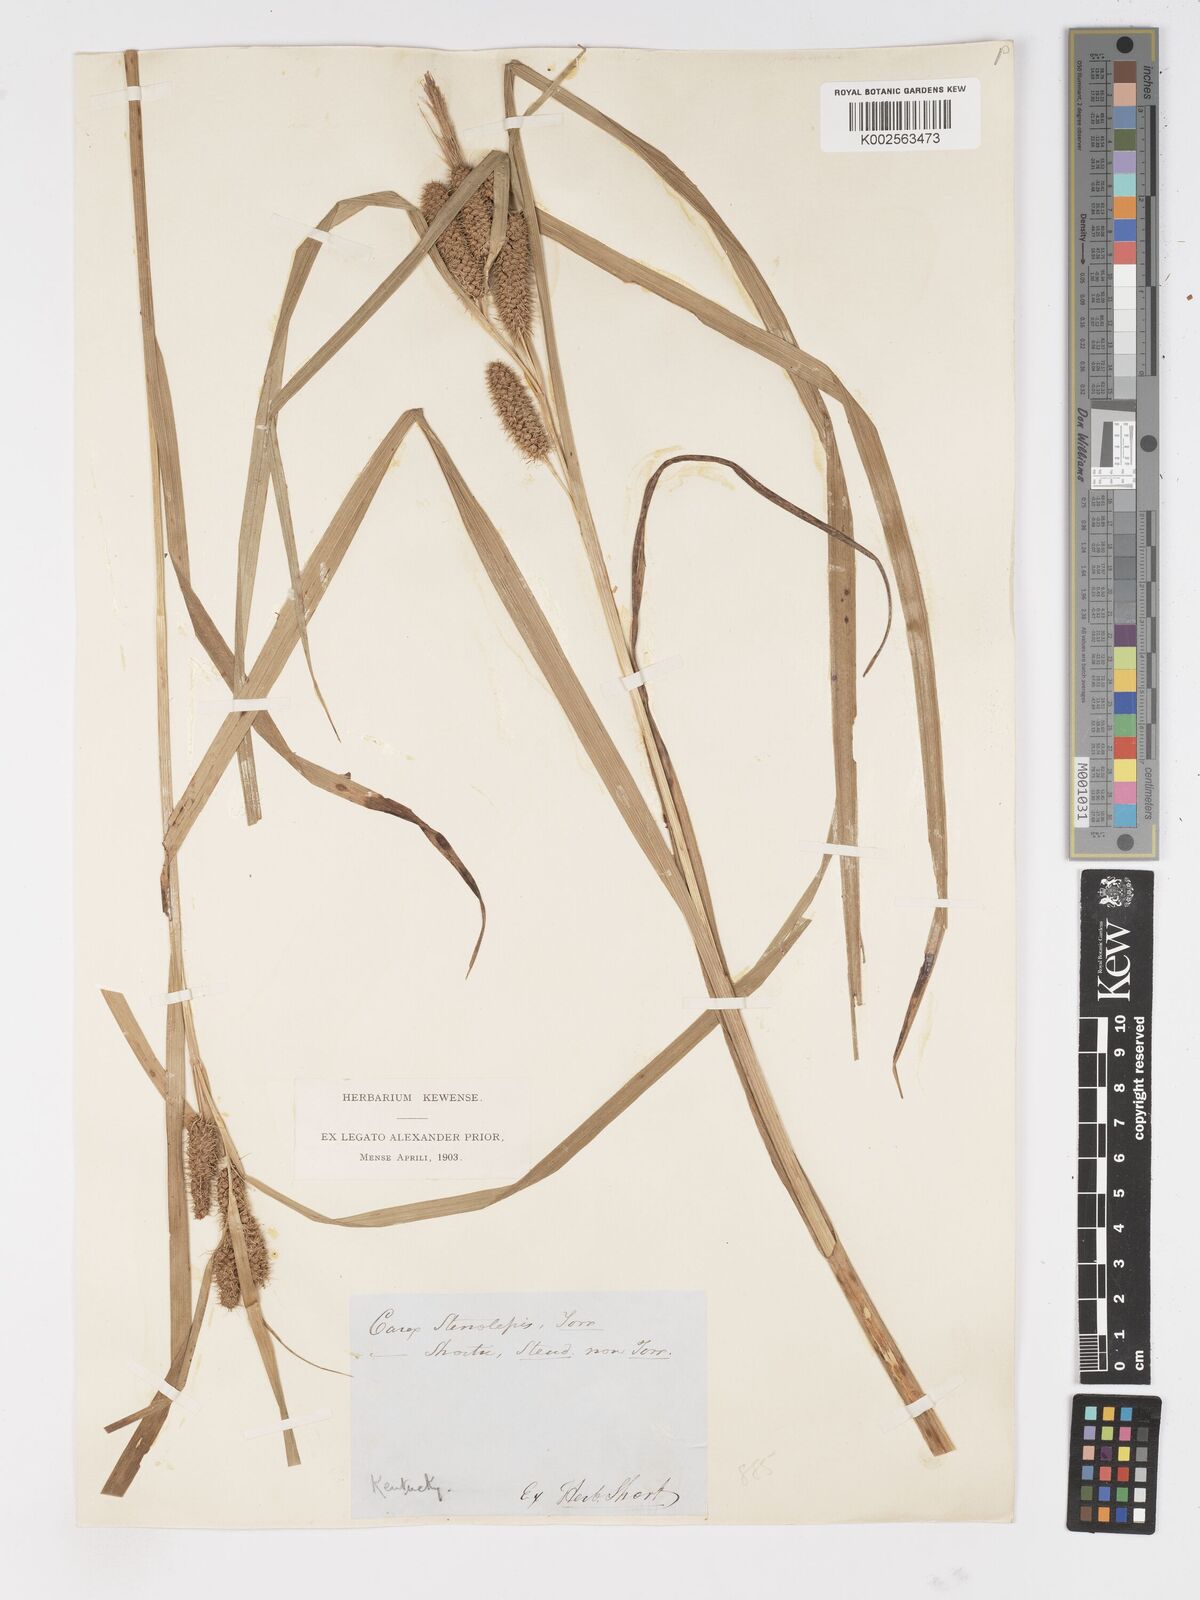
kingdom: Plantae
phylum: Tracheophyta
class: Liliopsida
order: Poales
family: Cyperaceae
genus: Carex
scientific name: Carex frankii
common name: Frank's sedge
